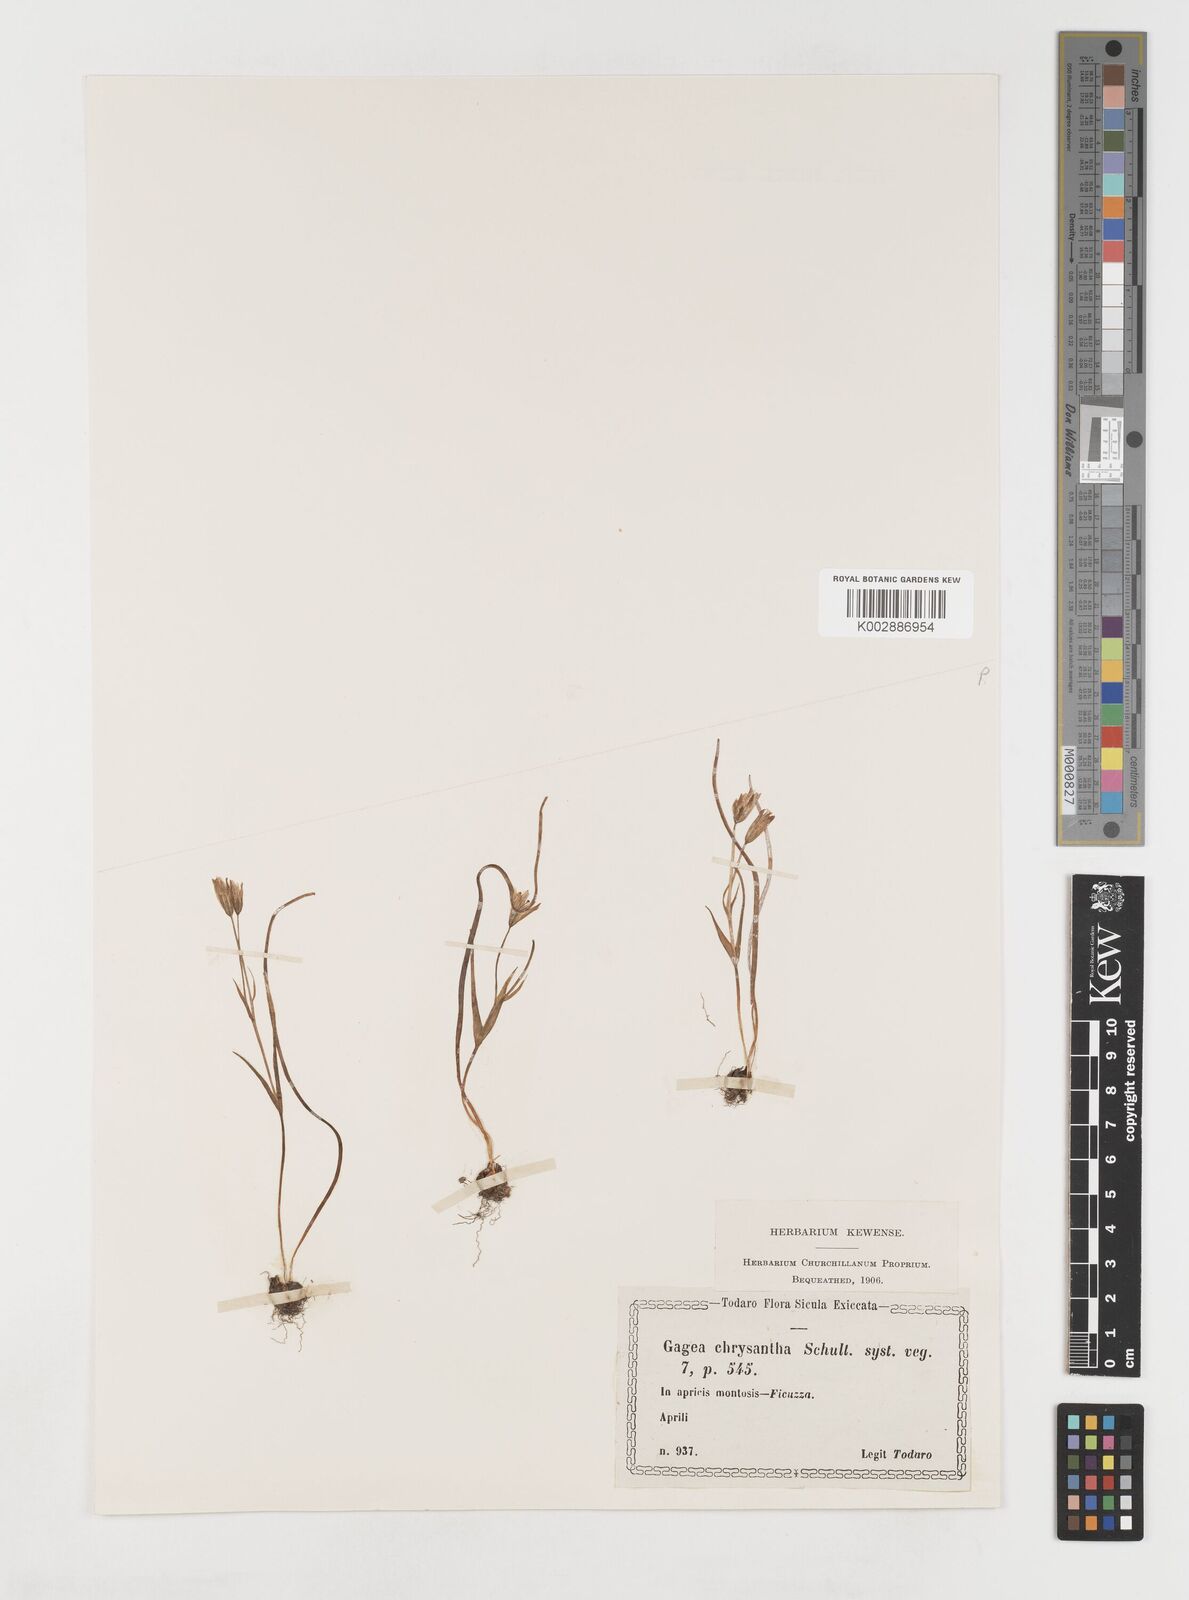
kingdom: Plantae
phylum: Tracheophyta
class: Liliopsida
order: Liliales
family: Liliaceae
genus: Gagea
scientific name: Gagea chrysantha
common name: Golden gagea
